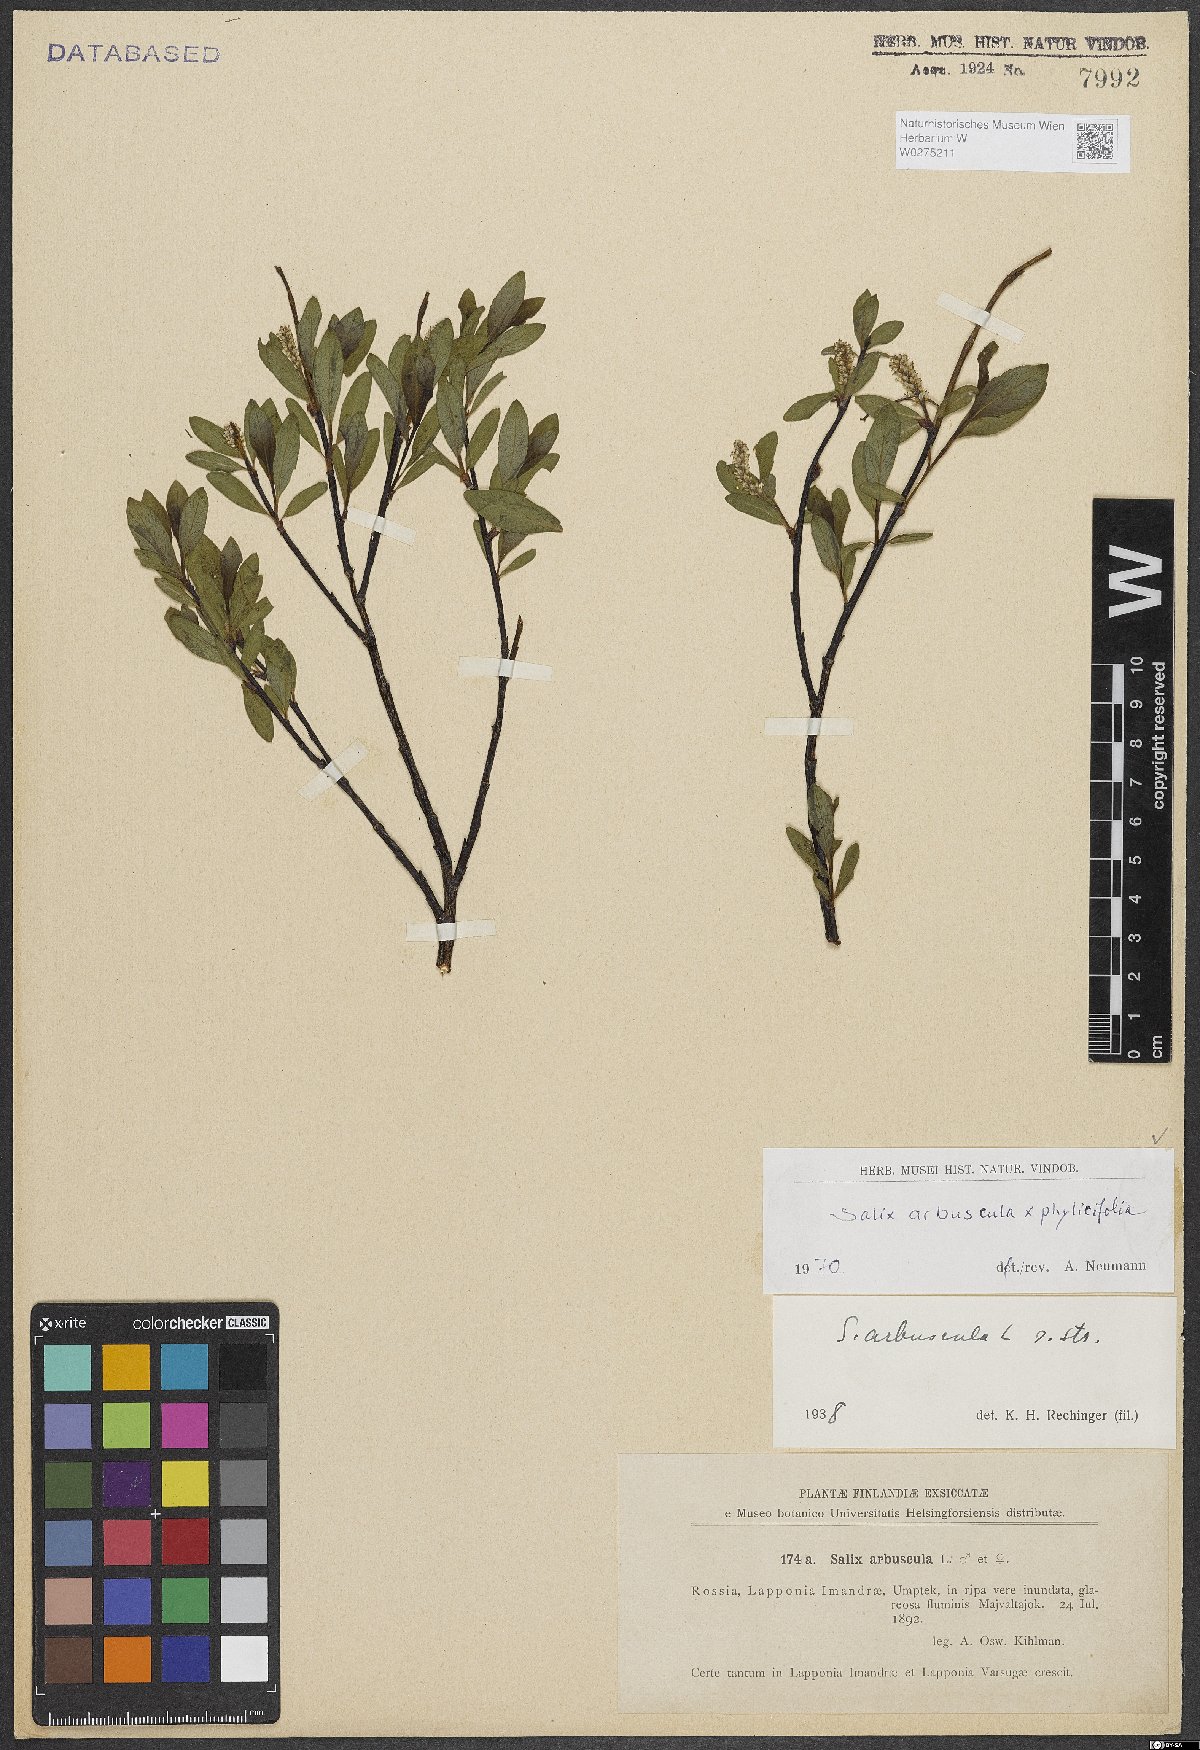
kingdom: Plantae
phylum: Tracheophyta
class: Magnoliopsida
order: Malpighiales
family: Salicaceae
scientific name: Salicaceae
